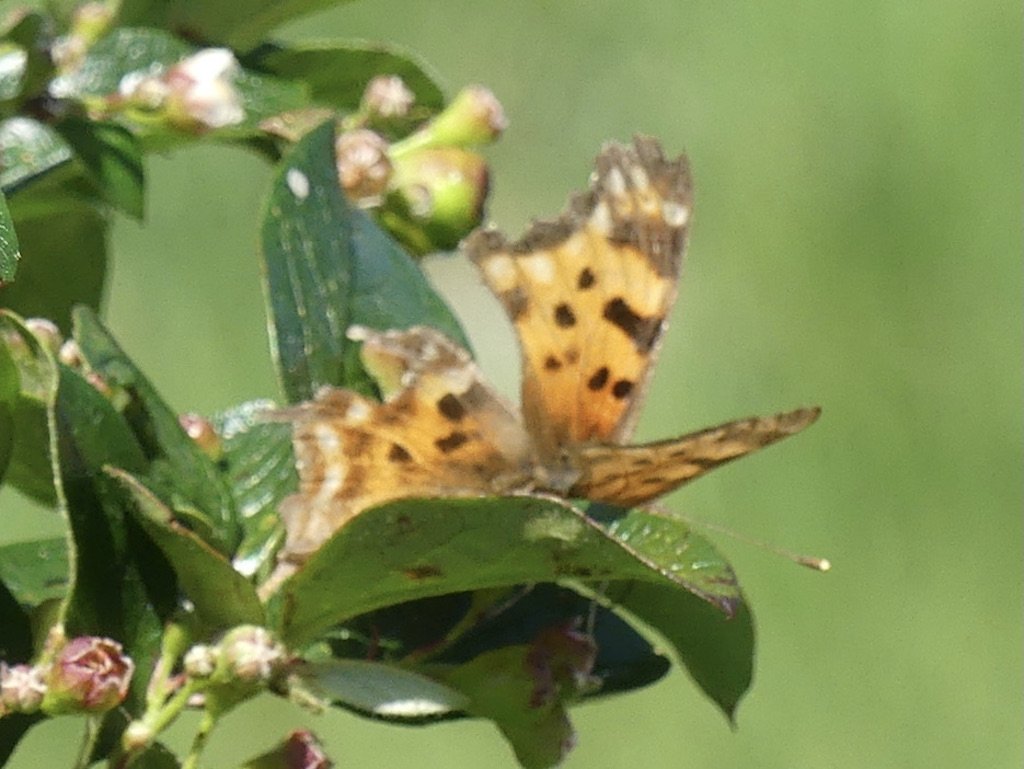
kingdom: Animalia
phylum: Arthropoda
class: Insecta
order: Lepidoptera
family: Nymphalidae
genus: Polygonia
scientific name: Polygonia satyrus
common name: Satyr Comma
